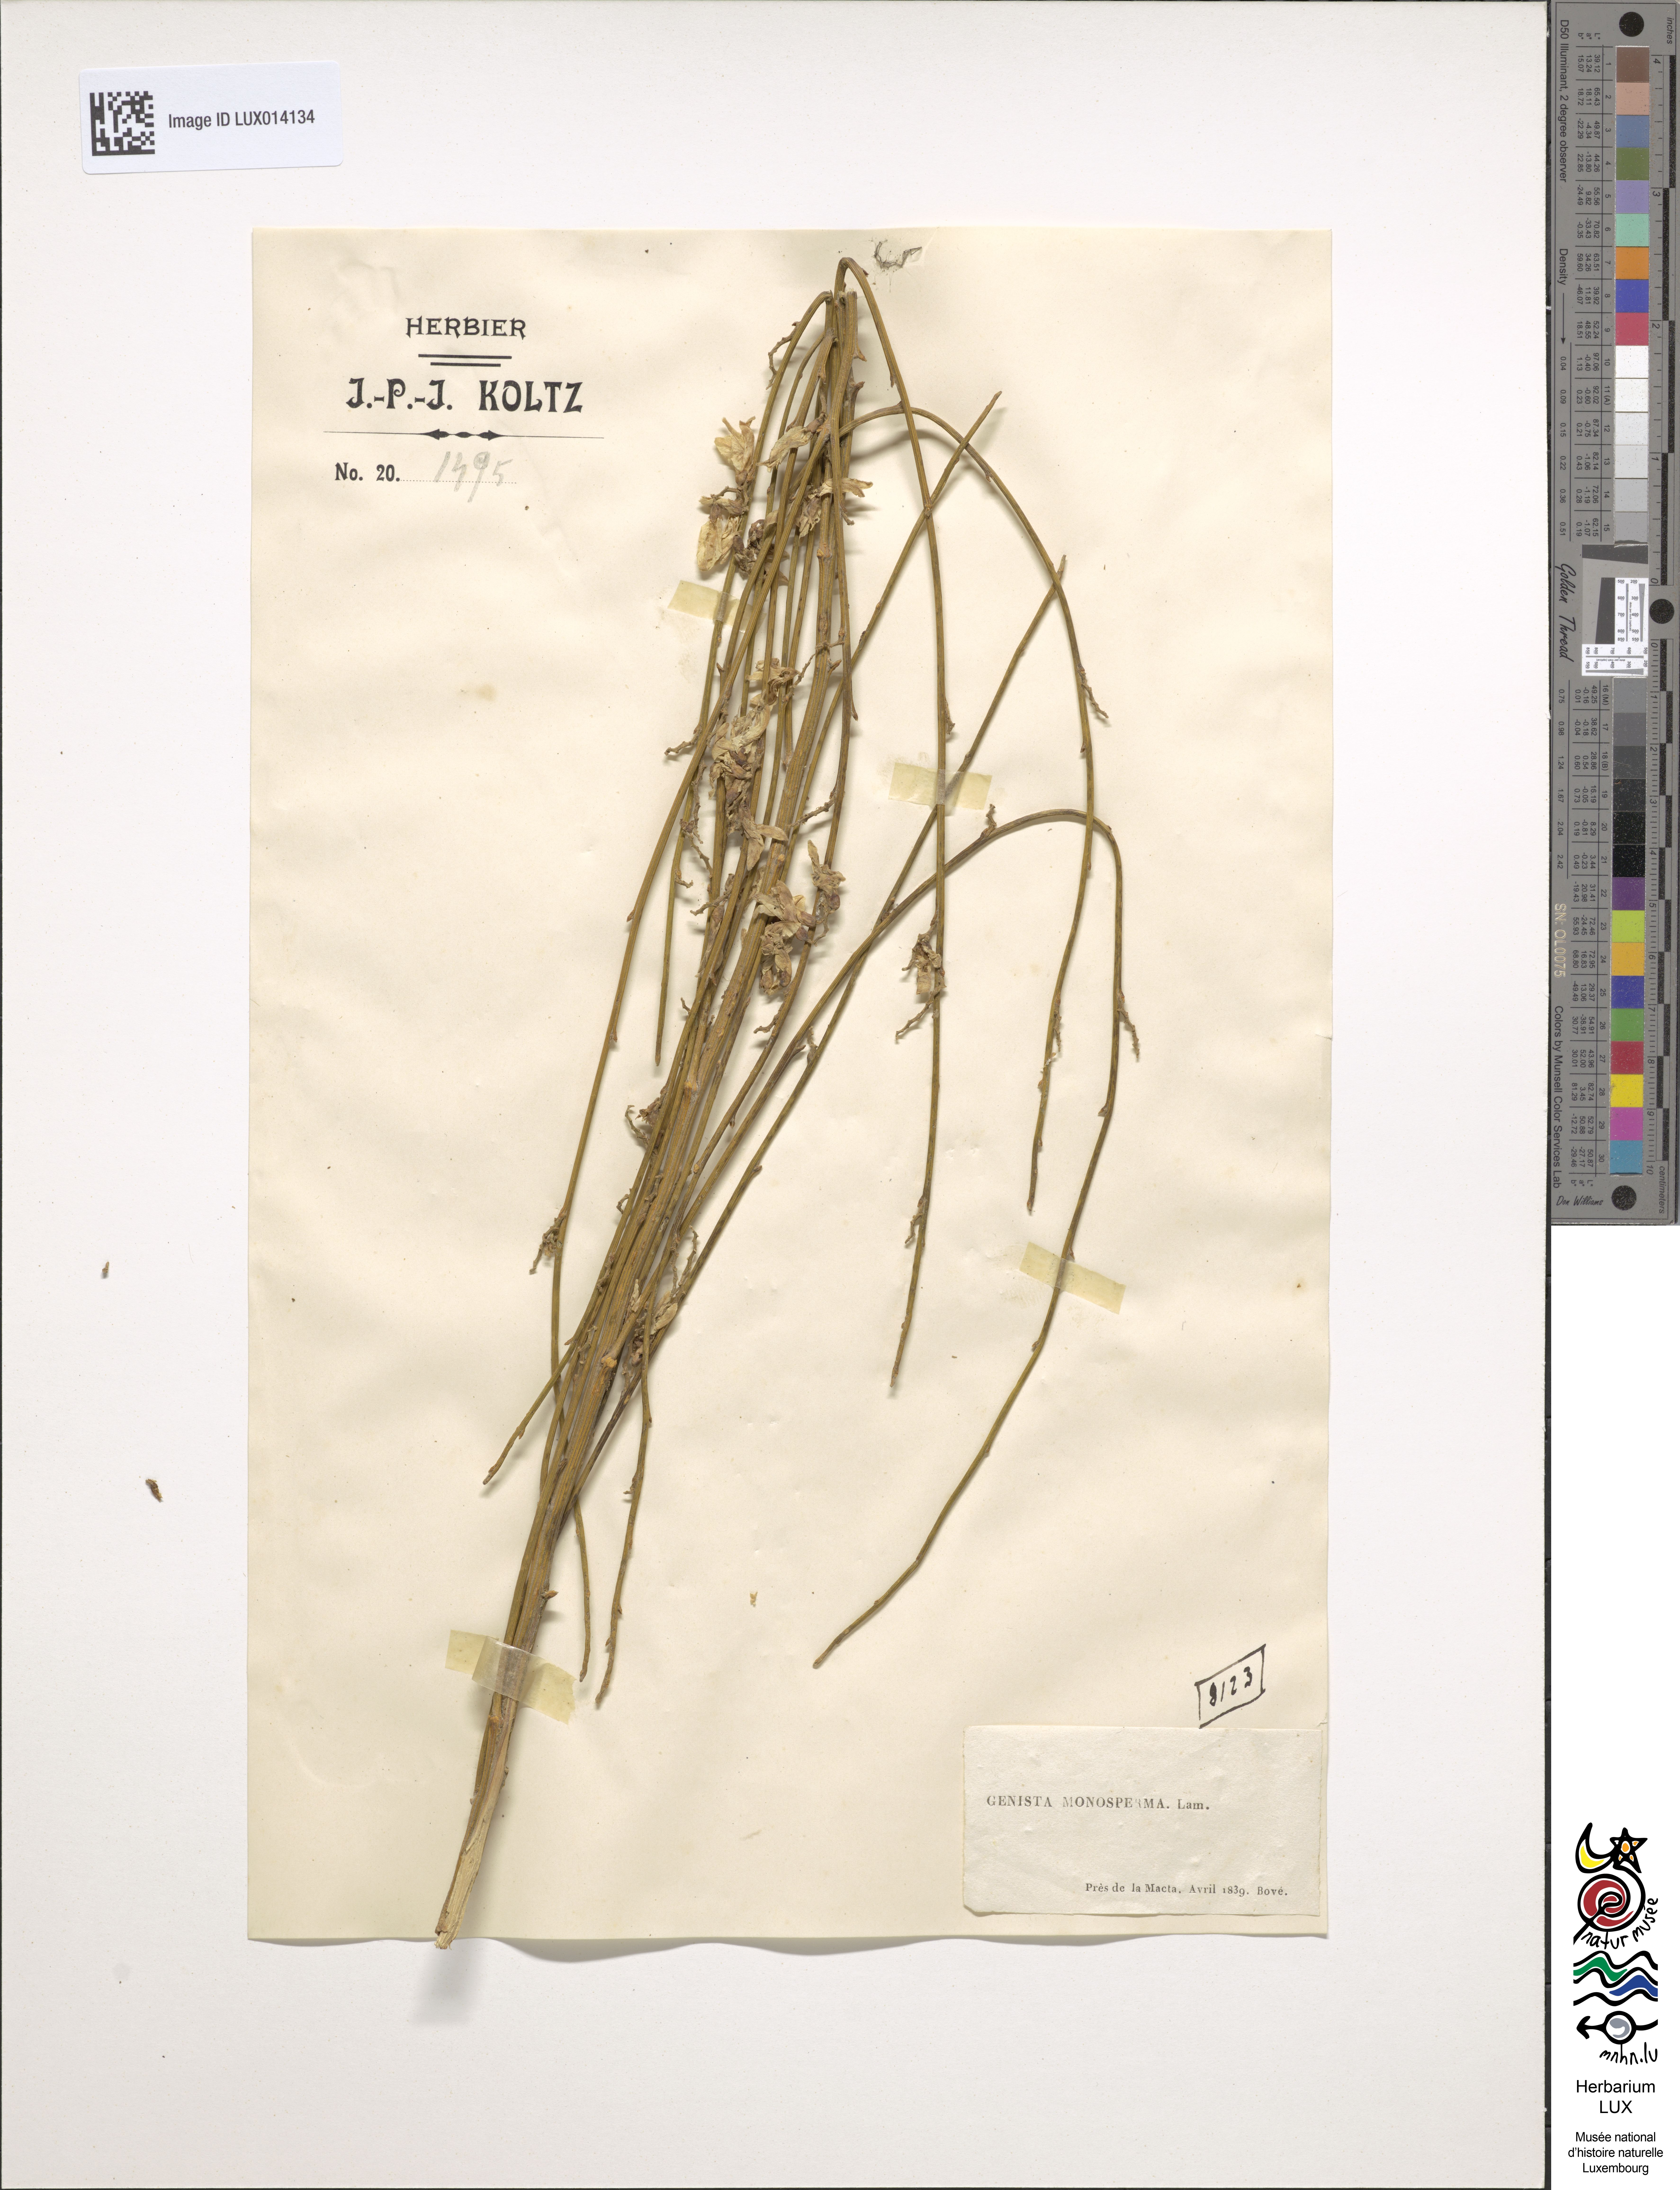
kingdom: Plantae
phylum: Tracheophyta
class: Magnoliopsida
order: Fabales
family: Fabaceae
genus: Retama
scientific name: Retama monosperma
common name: Bridal broom
